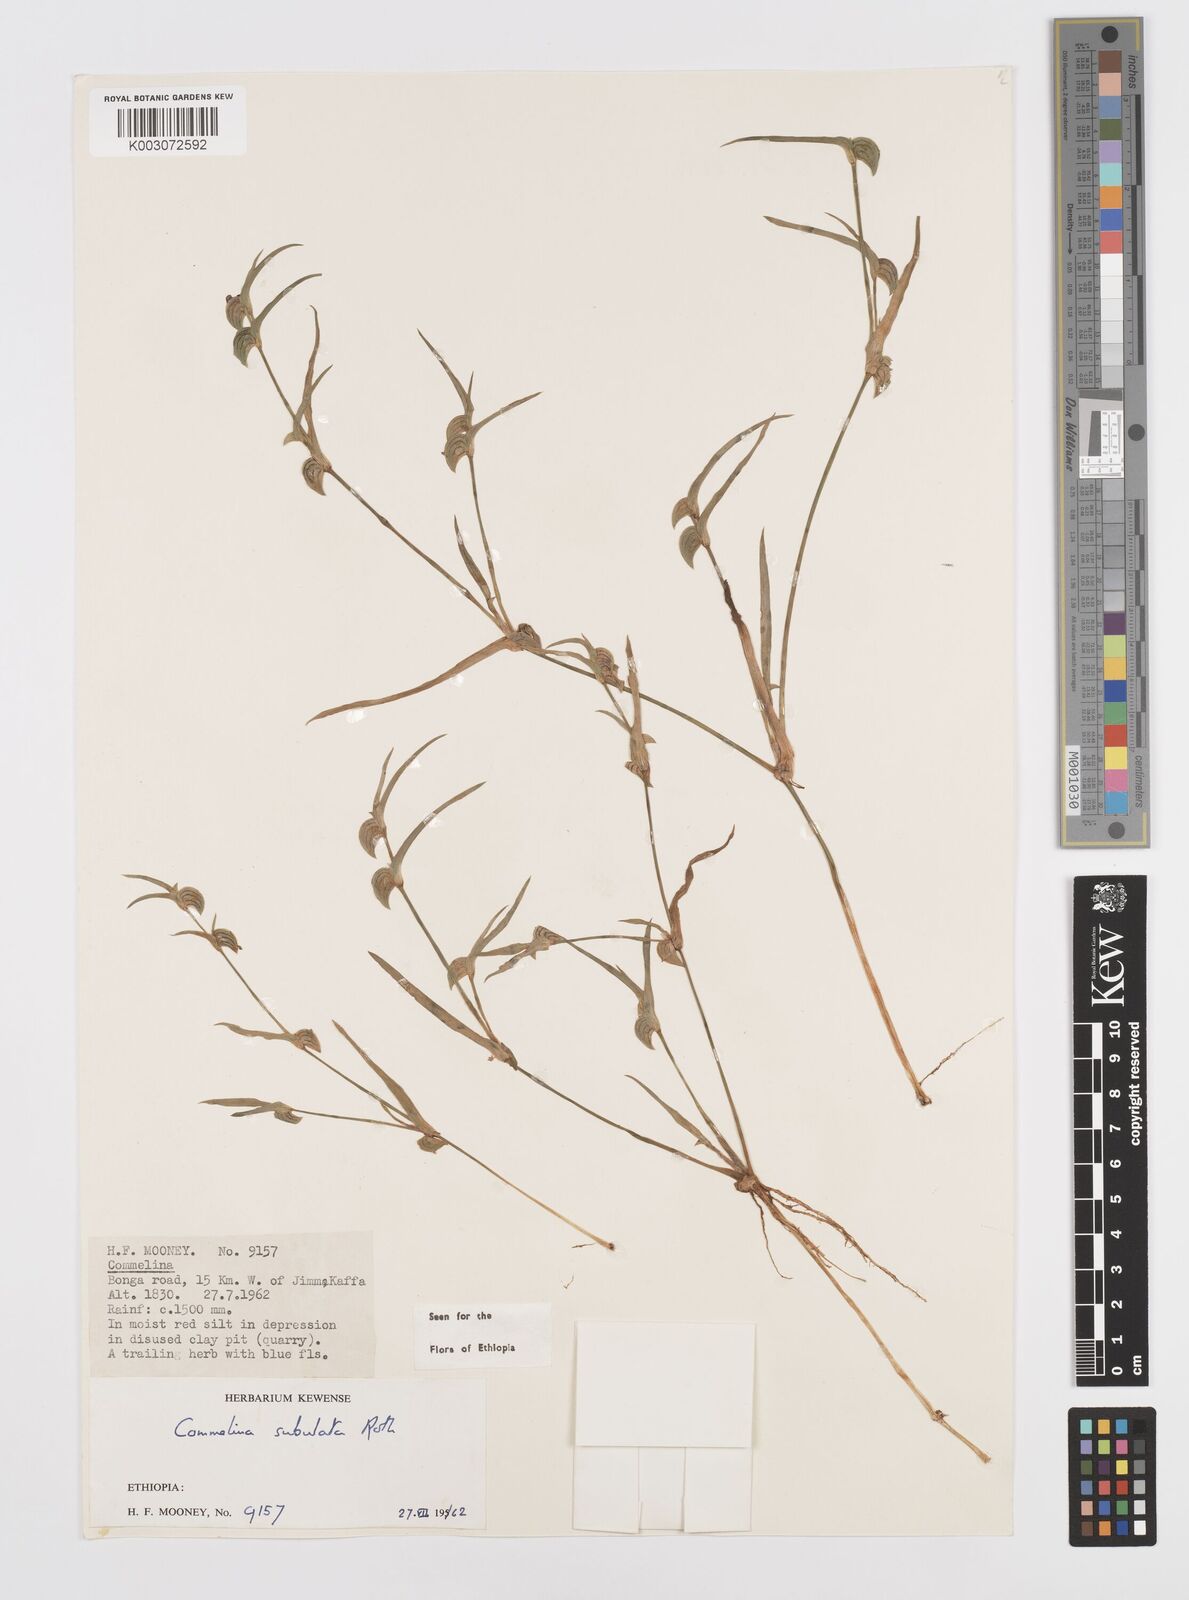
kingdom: Plantae
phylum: Tracheophyta
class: Liliopsida
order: Commelinales
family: Commelinaceae
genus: Commelina
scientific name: Commelina subulata
